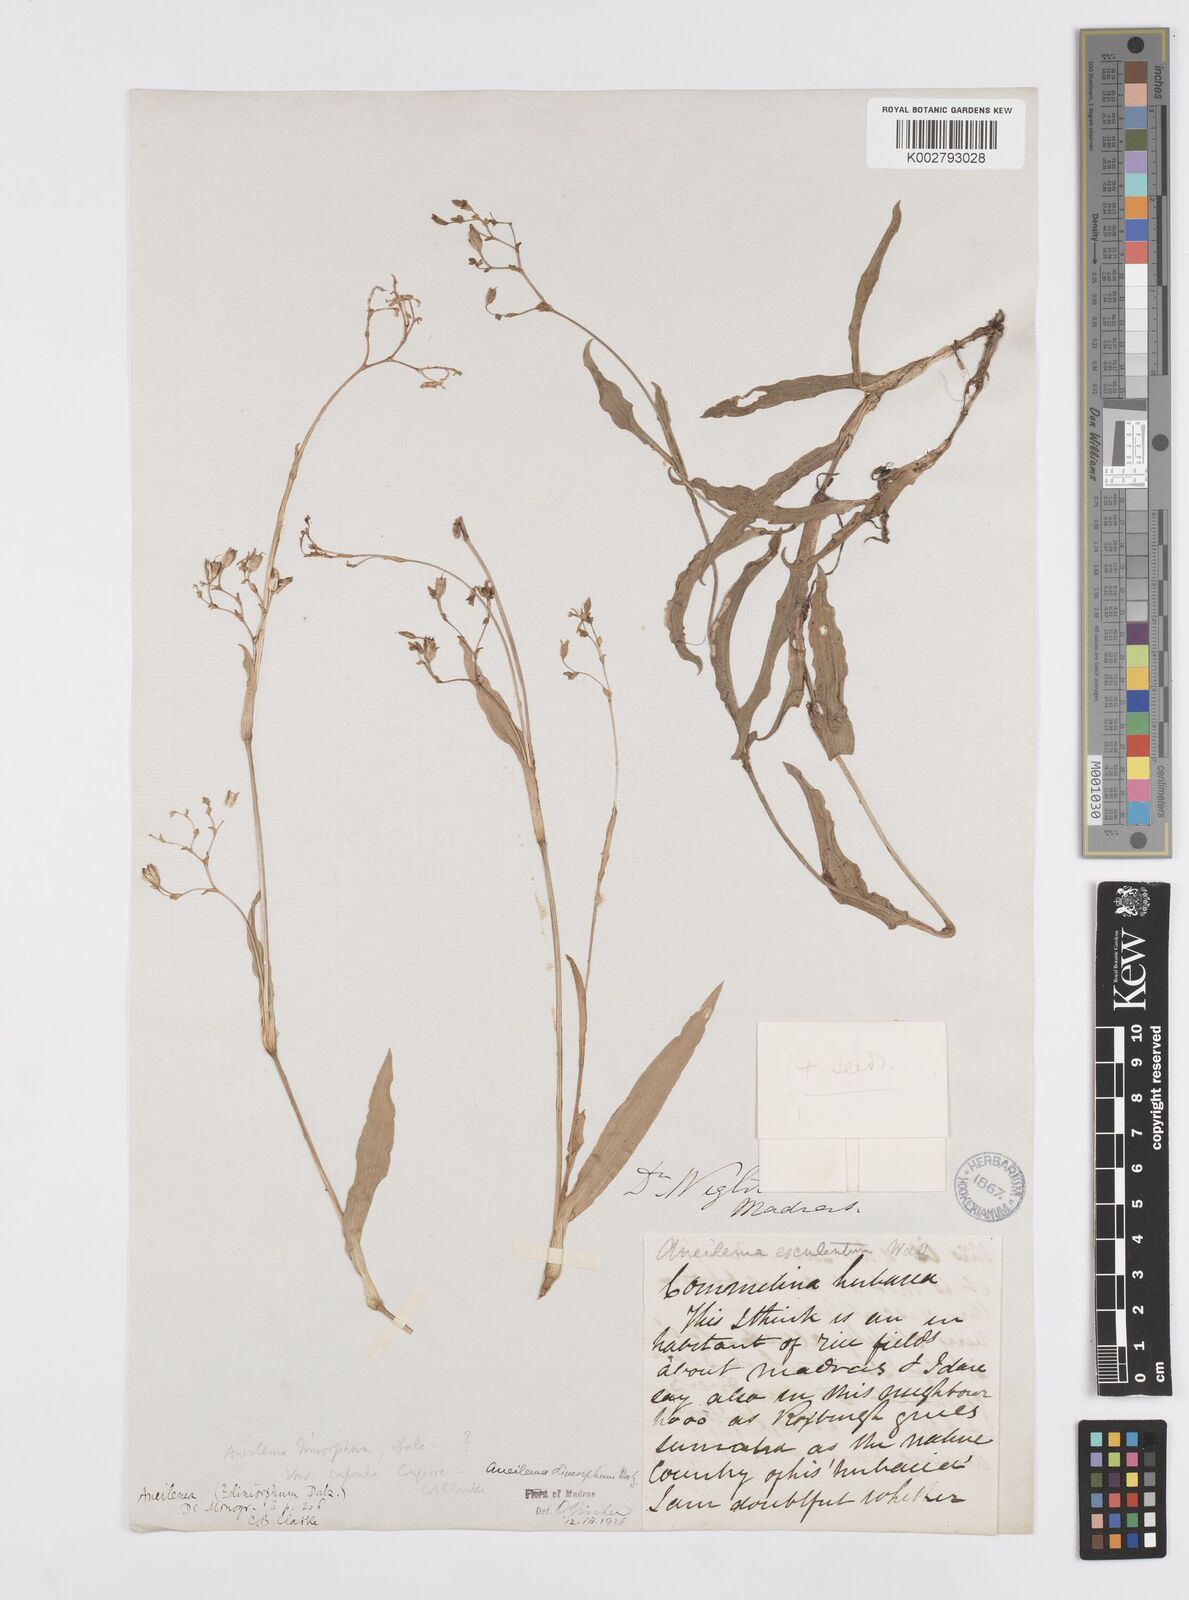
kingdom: Plantae
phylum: Tracheophyta
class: Liliopsida
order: Commelinales
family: Commelinaceae
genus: Murdannia
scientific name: Murdannia dimorpha
